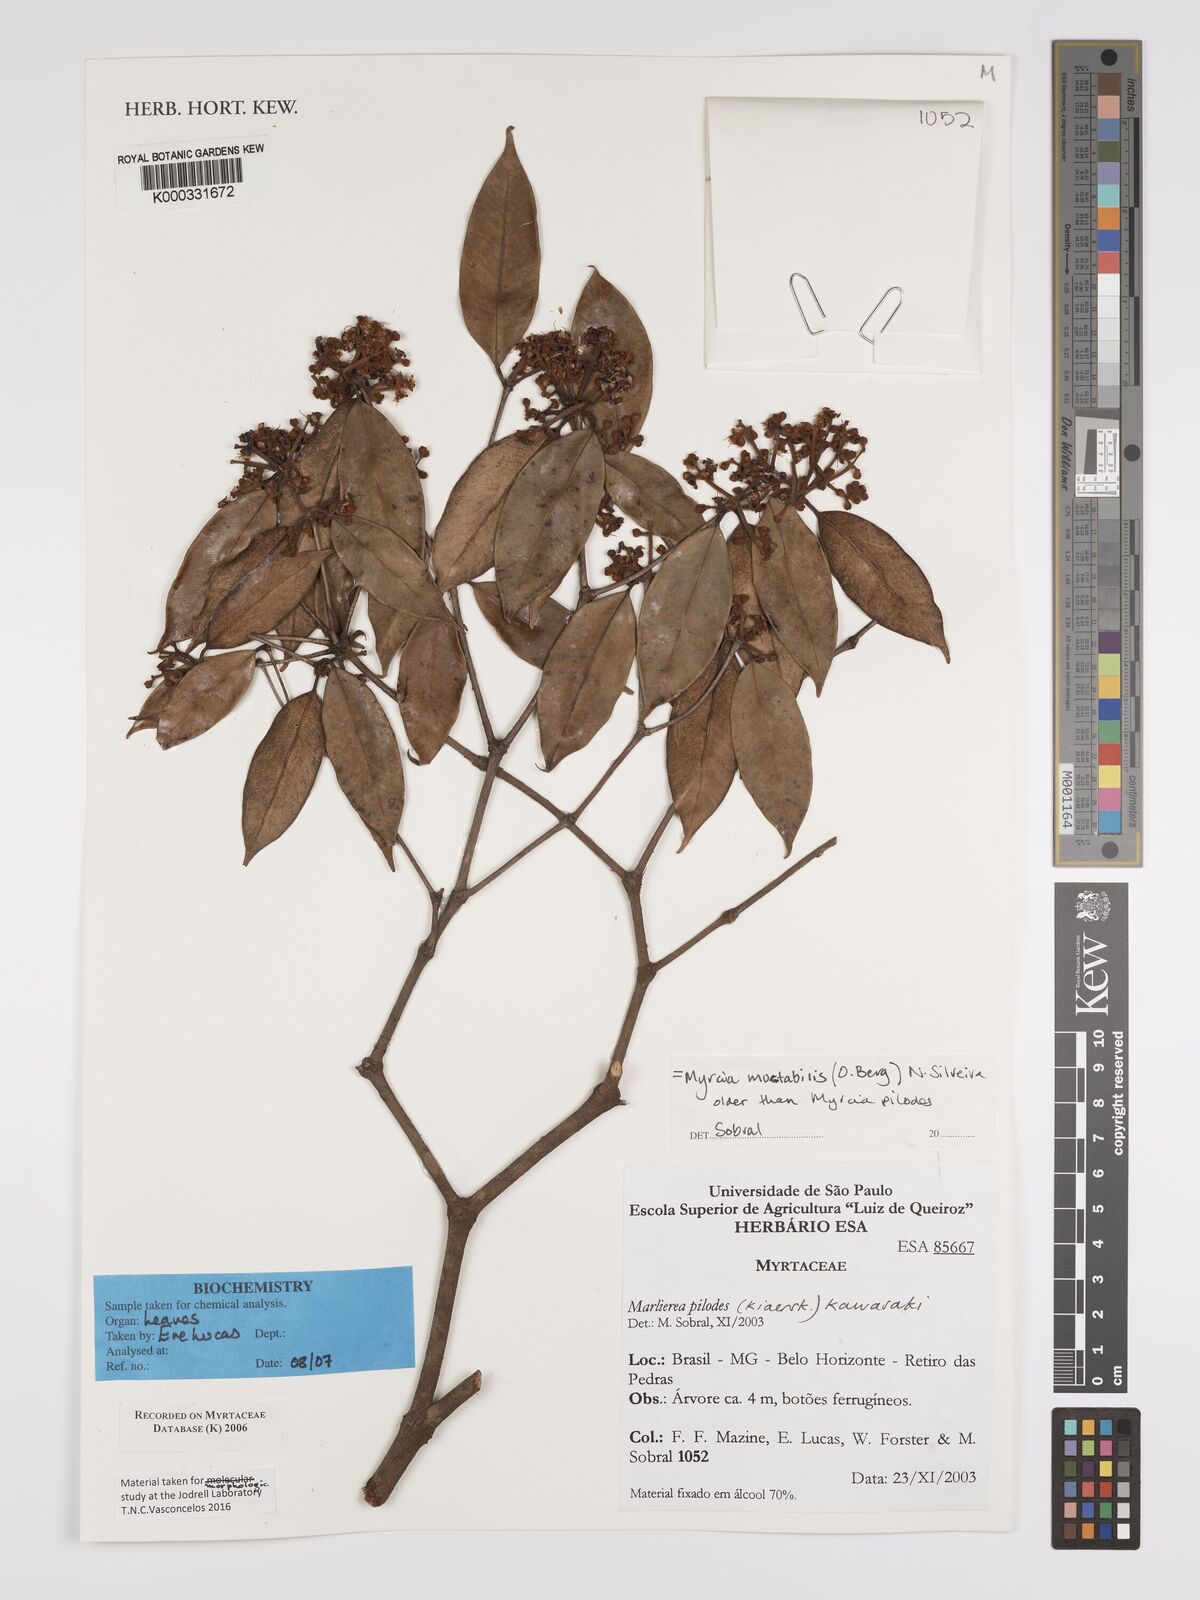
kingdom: Plantae
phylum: Tracheophyta
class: Magnoliopsida
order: Myrtales
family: Myrtaceae
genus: Myrcia
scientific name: Myrcia mutabilis
